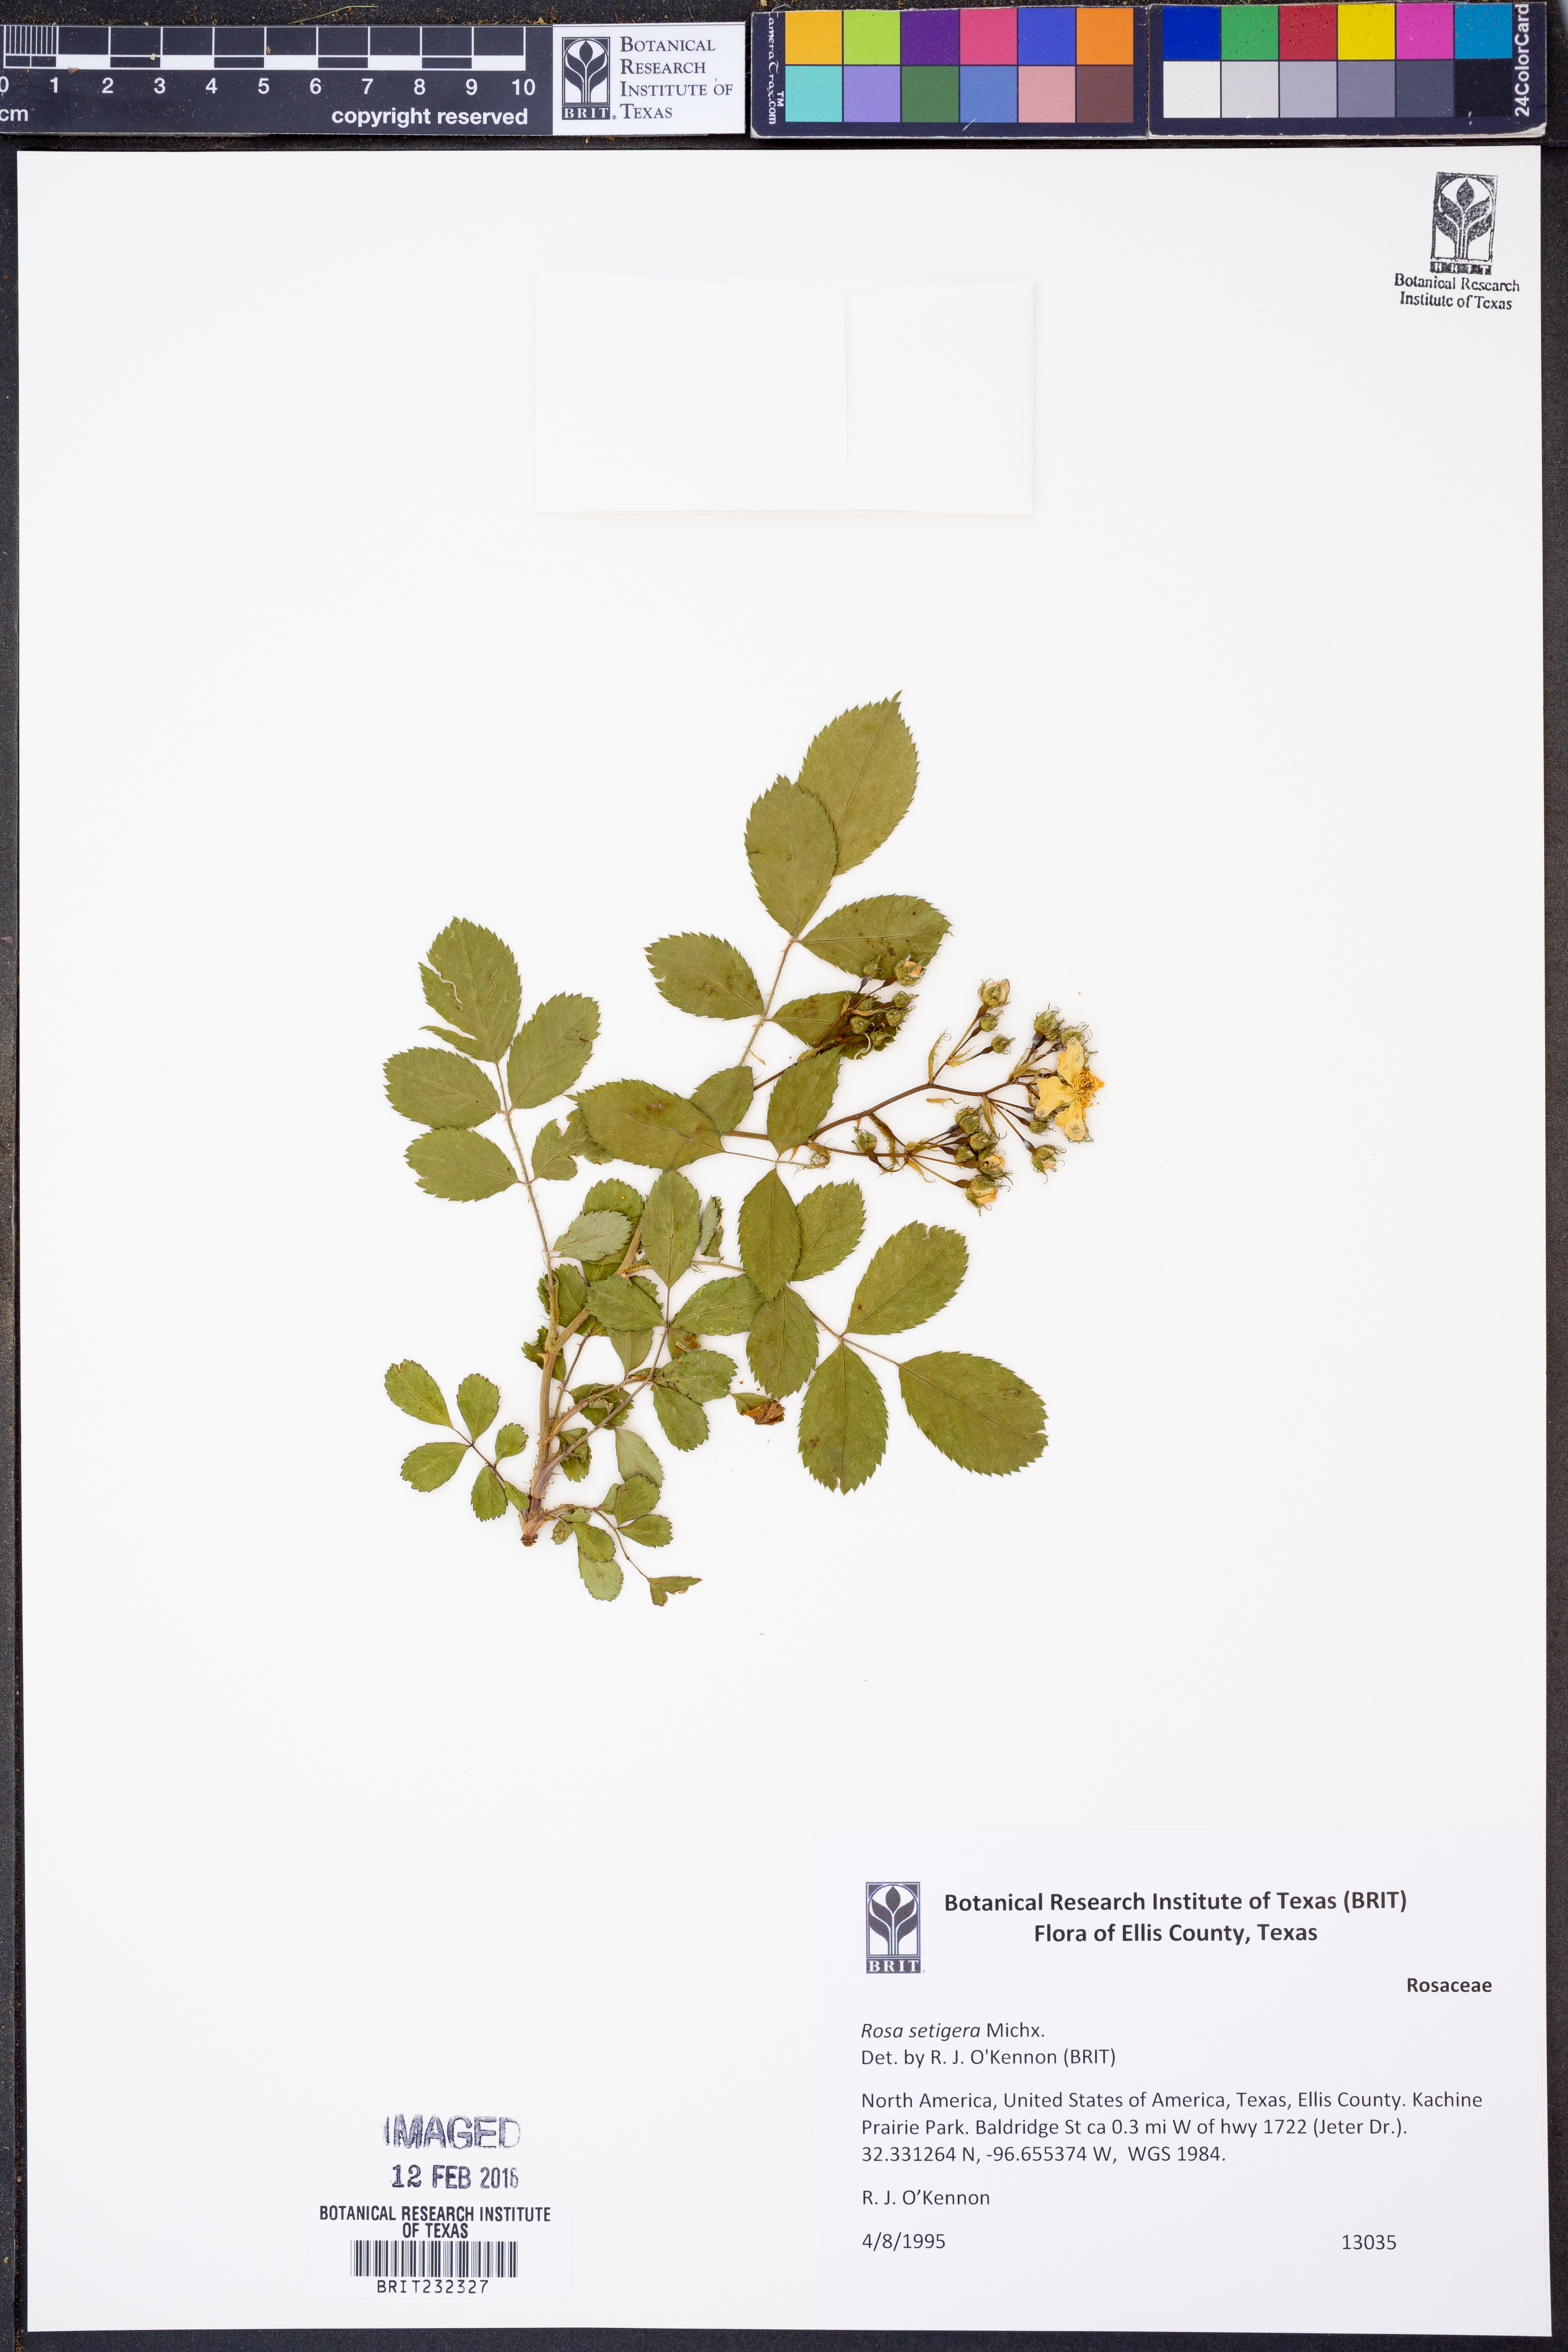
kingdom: Plantae
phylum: Tracheophyta
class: Magnoliopsida
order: Rosales
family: Rosaceae
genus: Rosa
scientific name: Rosa setigera
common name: Prairie rose
